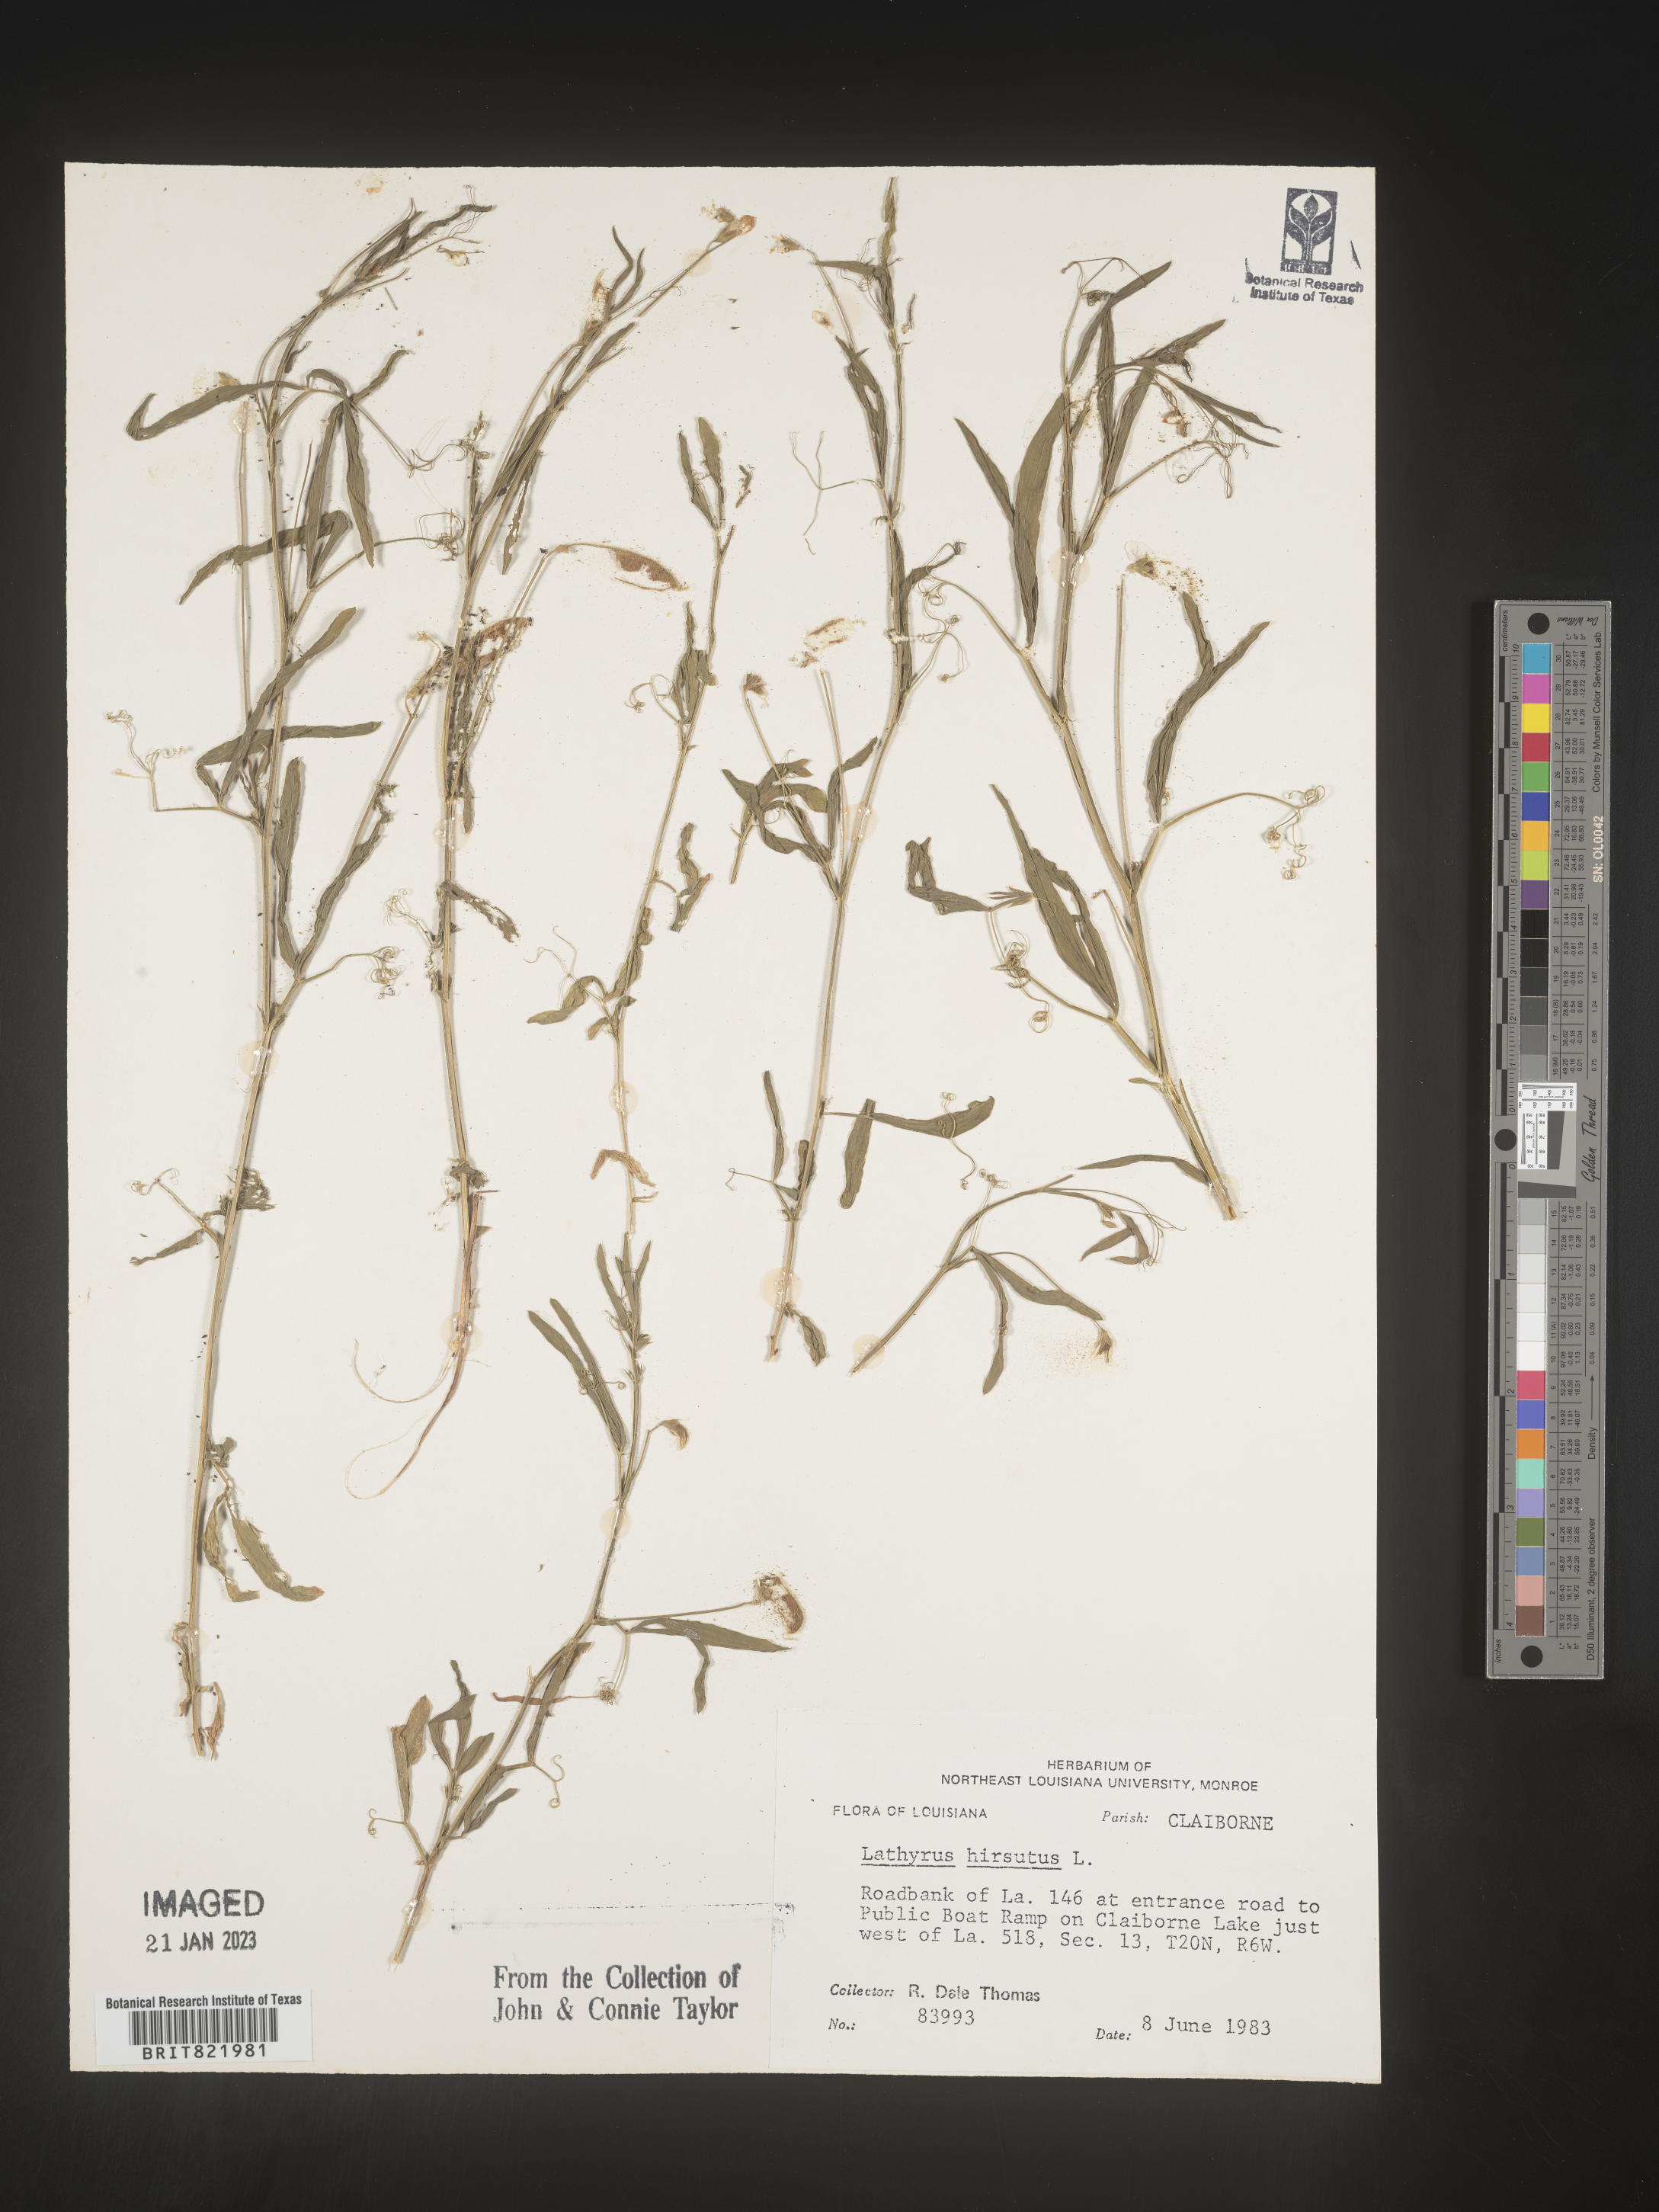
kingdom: Plantae
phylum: Tracheophyta
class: Magnoliopsida
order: Fabales
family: Fabaceae
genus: Lathyrus
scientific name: Lathyrus hirsutus
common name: Hairy vetchling
